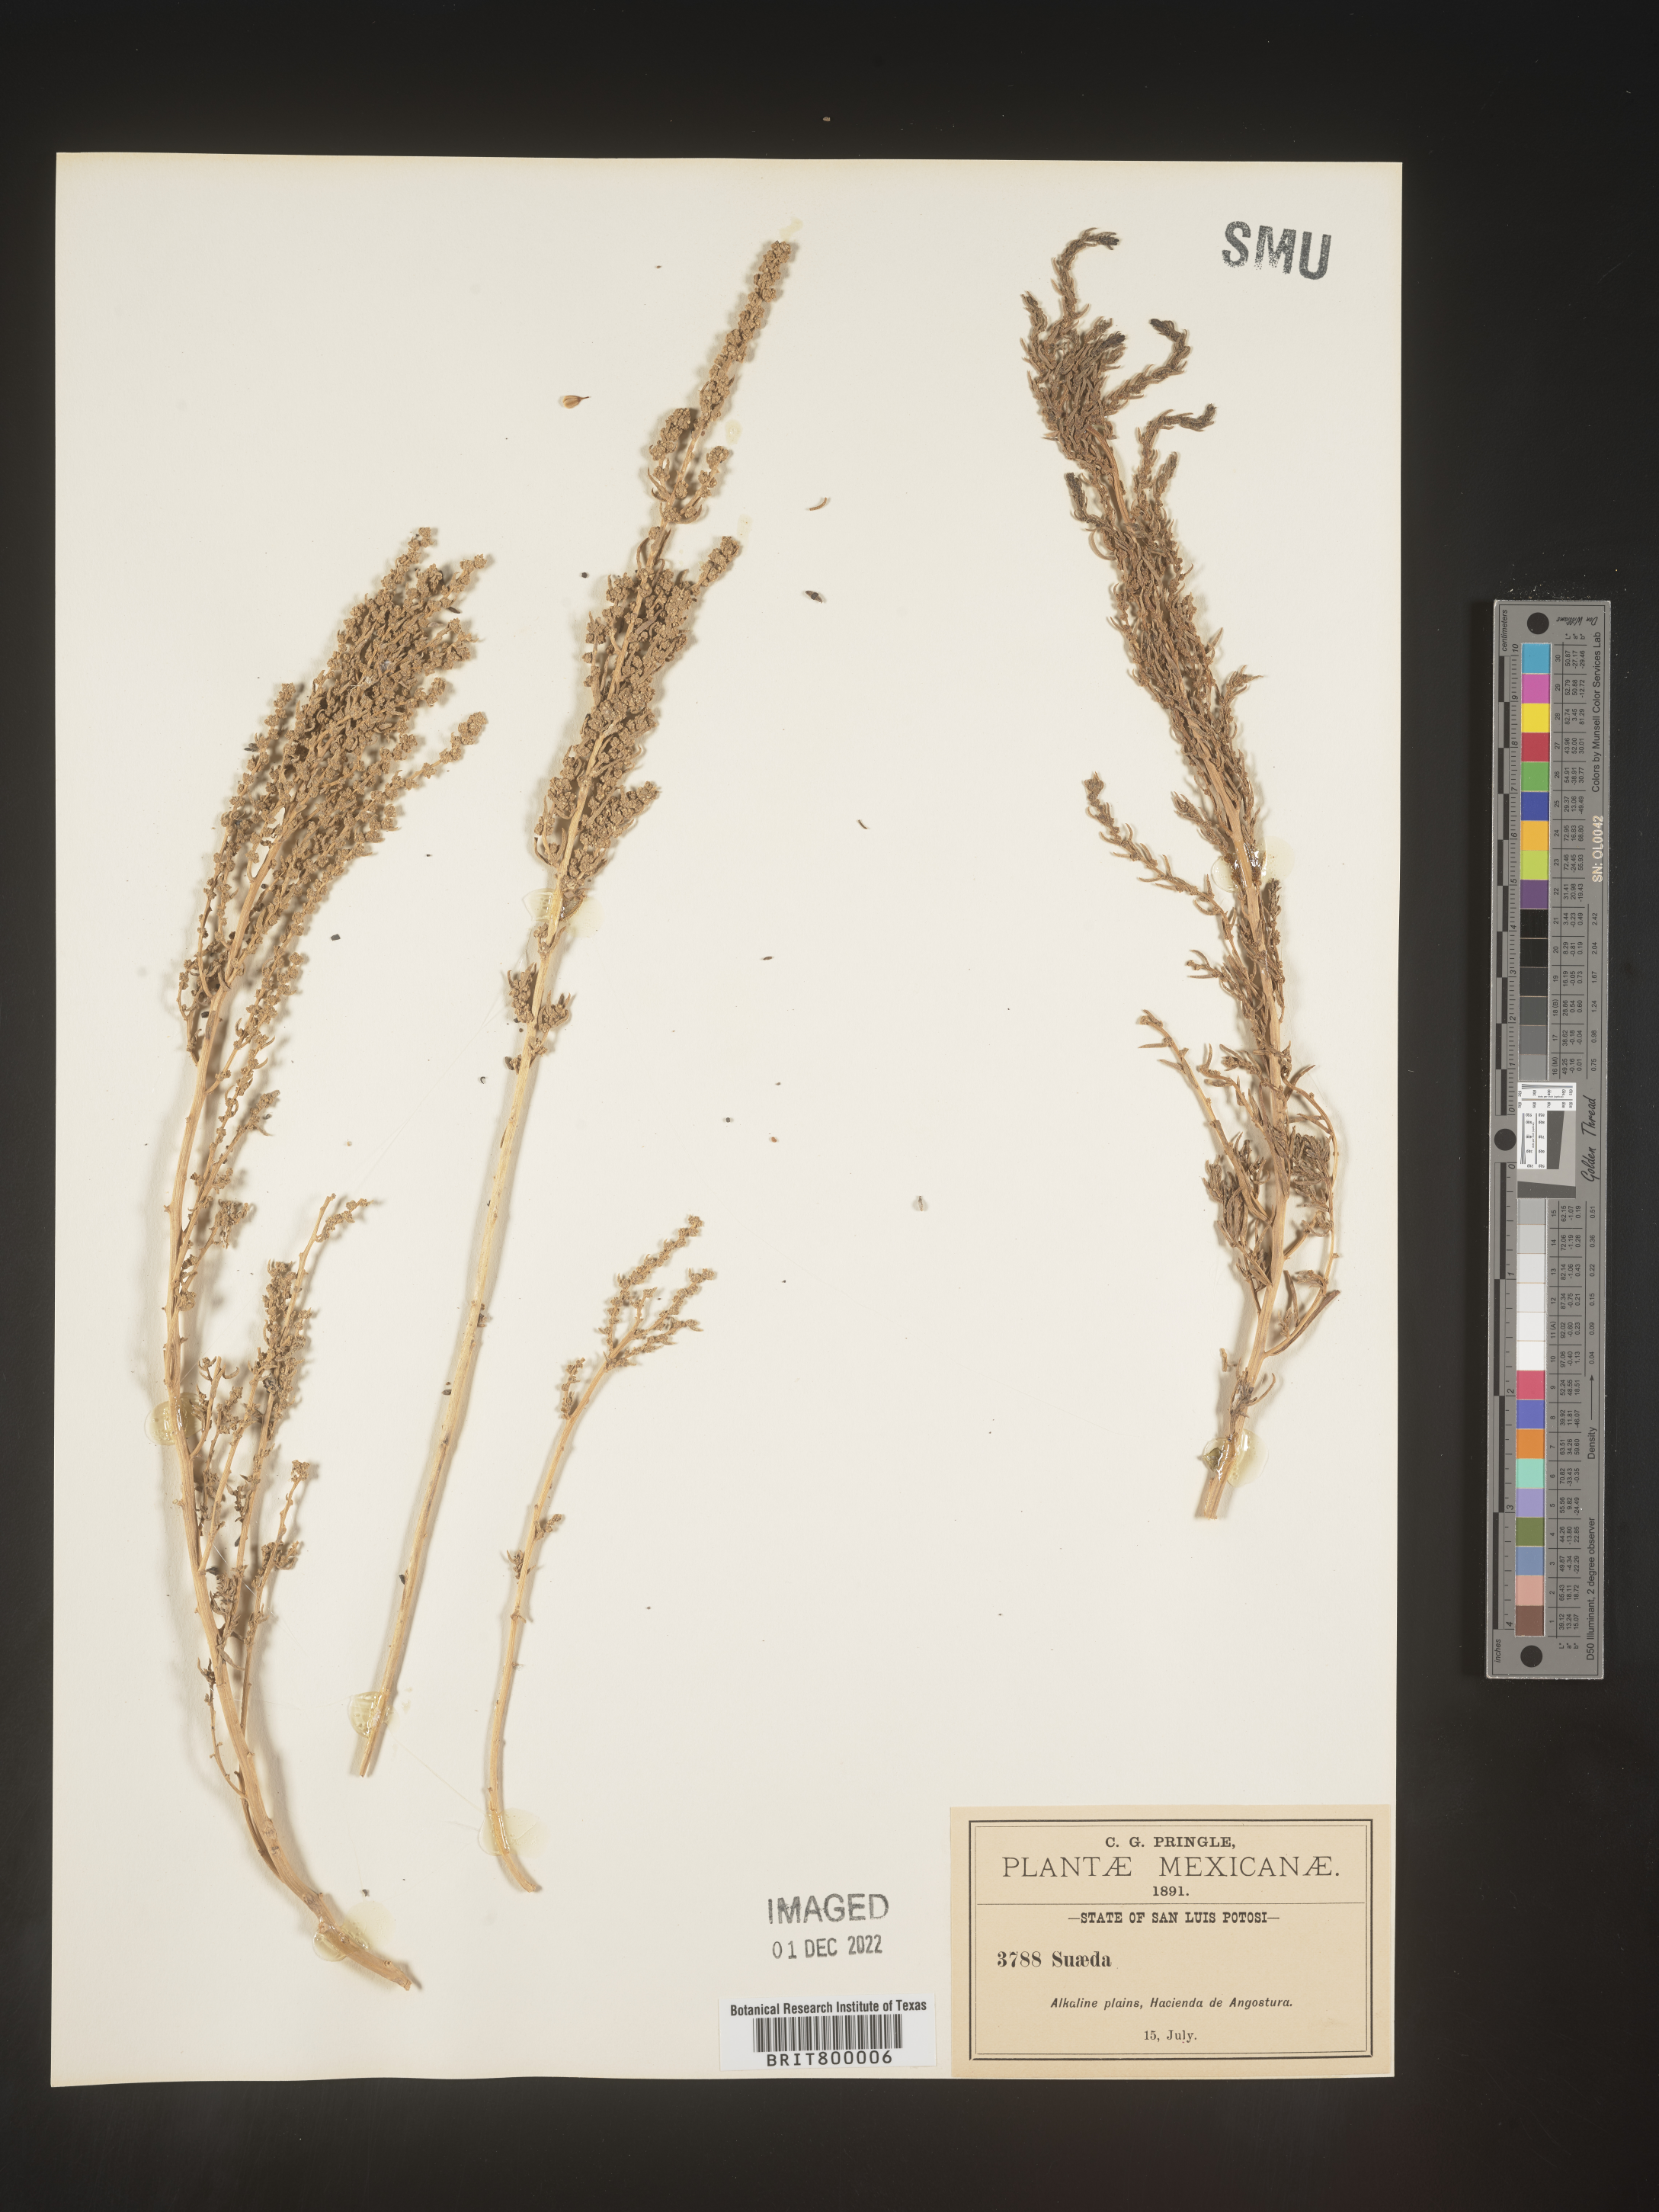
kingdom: Plantae
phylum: Tracheophyta
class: Magnoliopsida
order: Caryophyllales
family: Amaranthaceae
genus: Suaeda
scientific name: Suaeda
